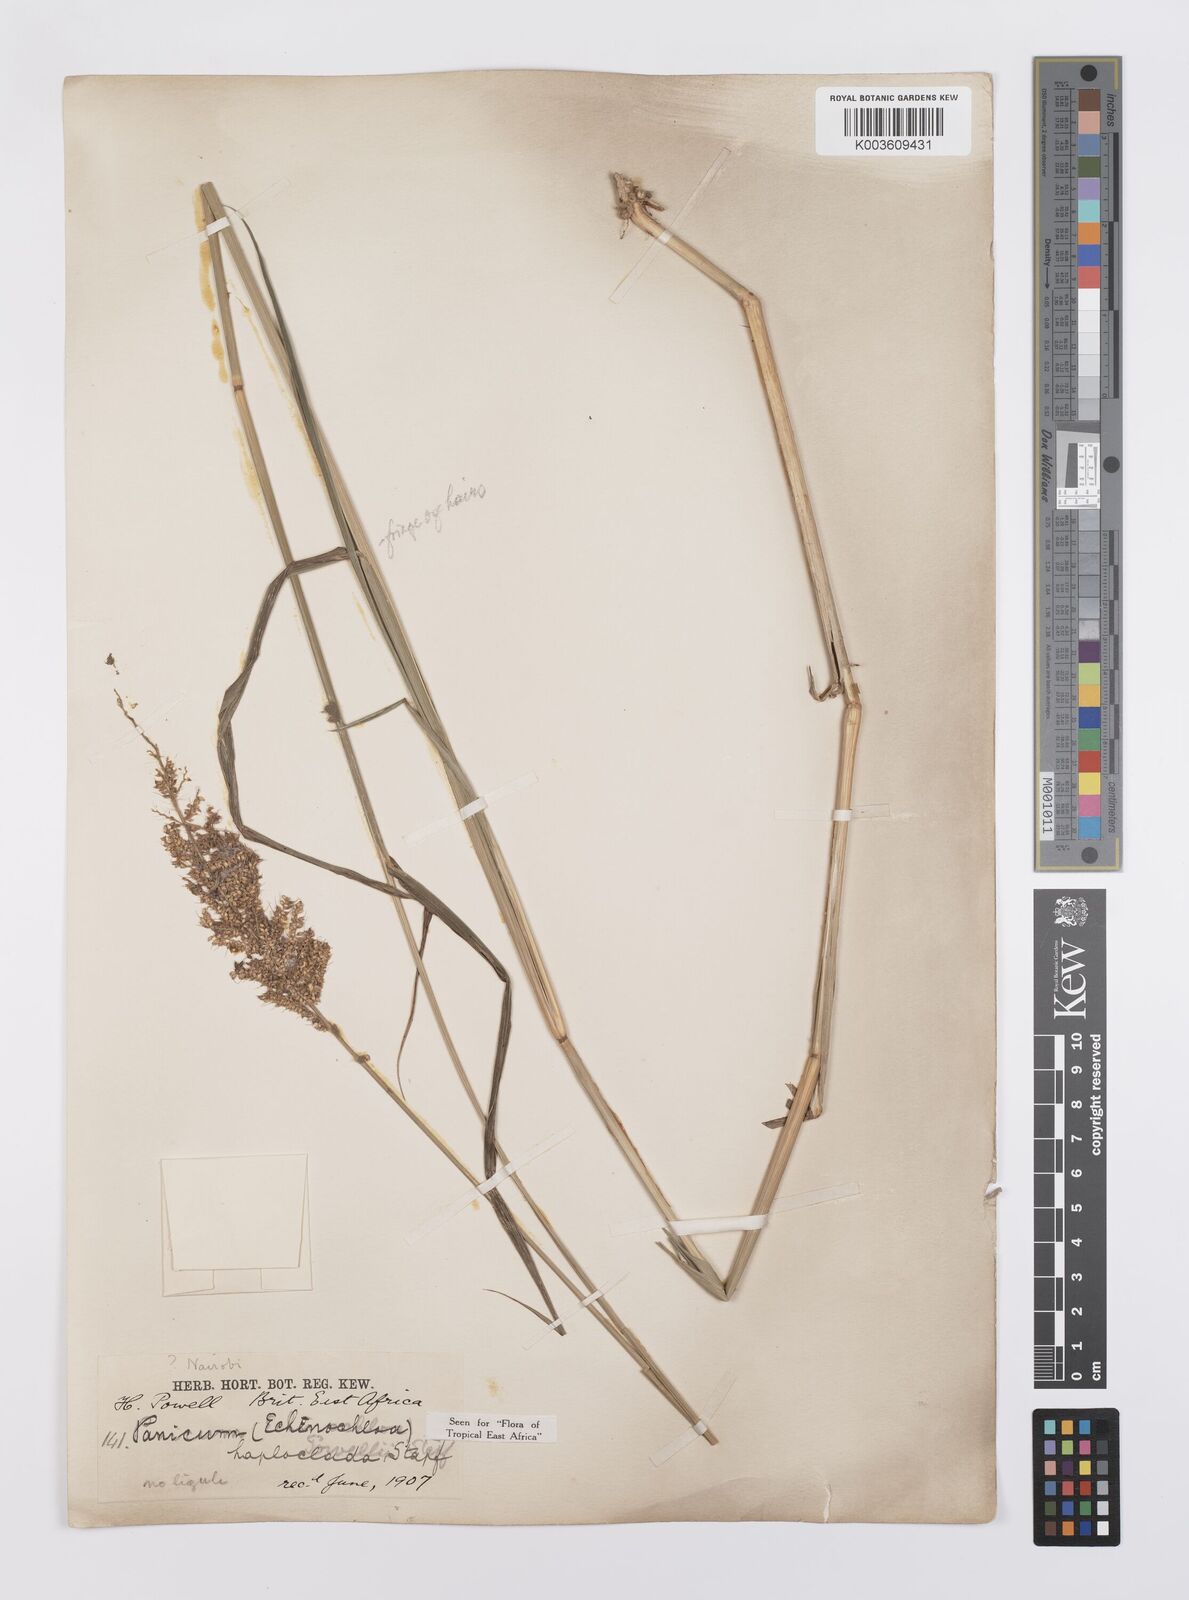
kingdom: Plantae
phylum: Tracheophyta
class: Liliopsida
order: Poales
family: Poaceae
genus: Echinochloa
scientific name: Echinochloa haploclada
